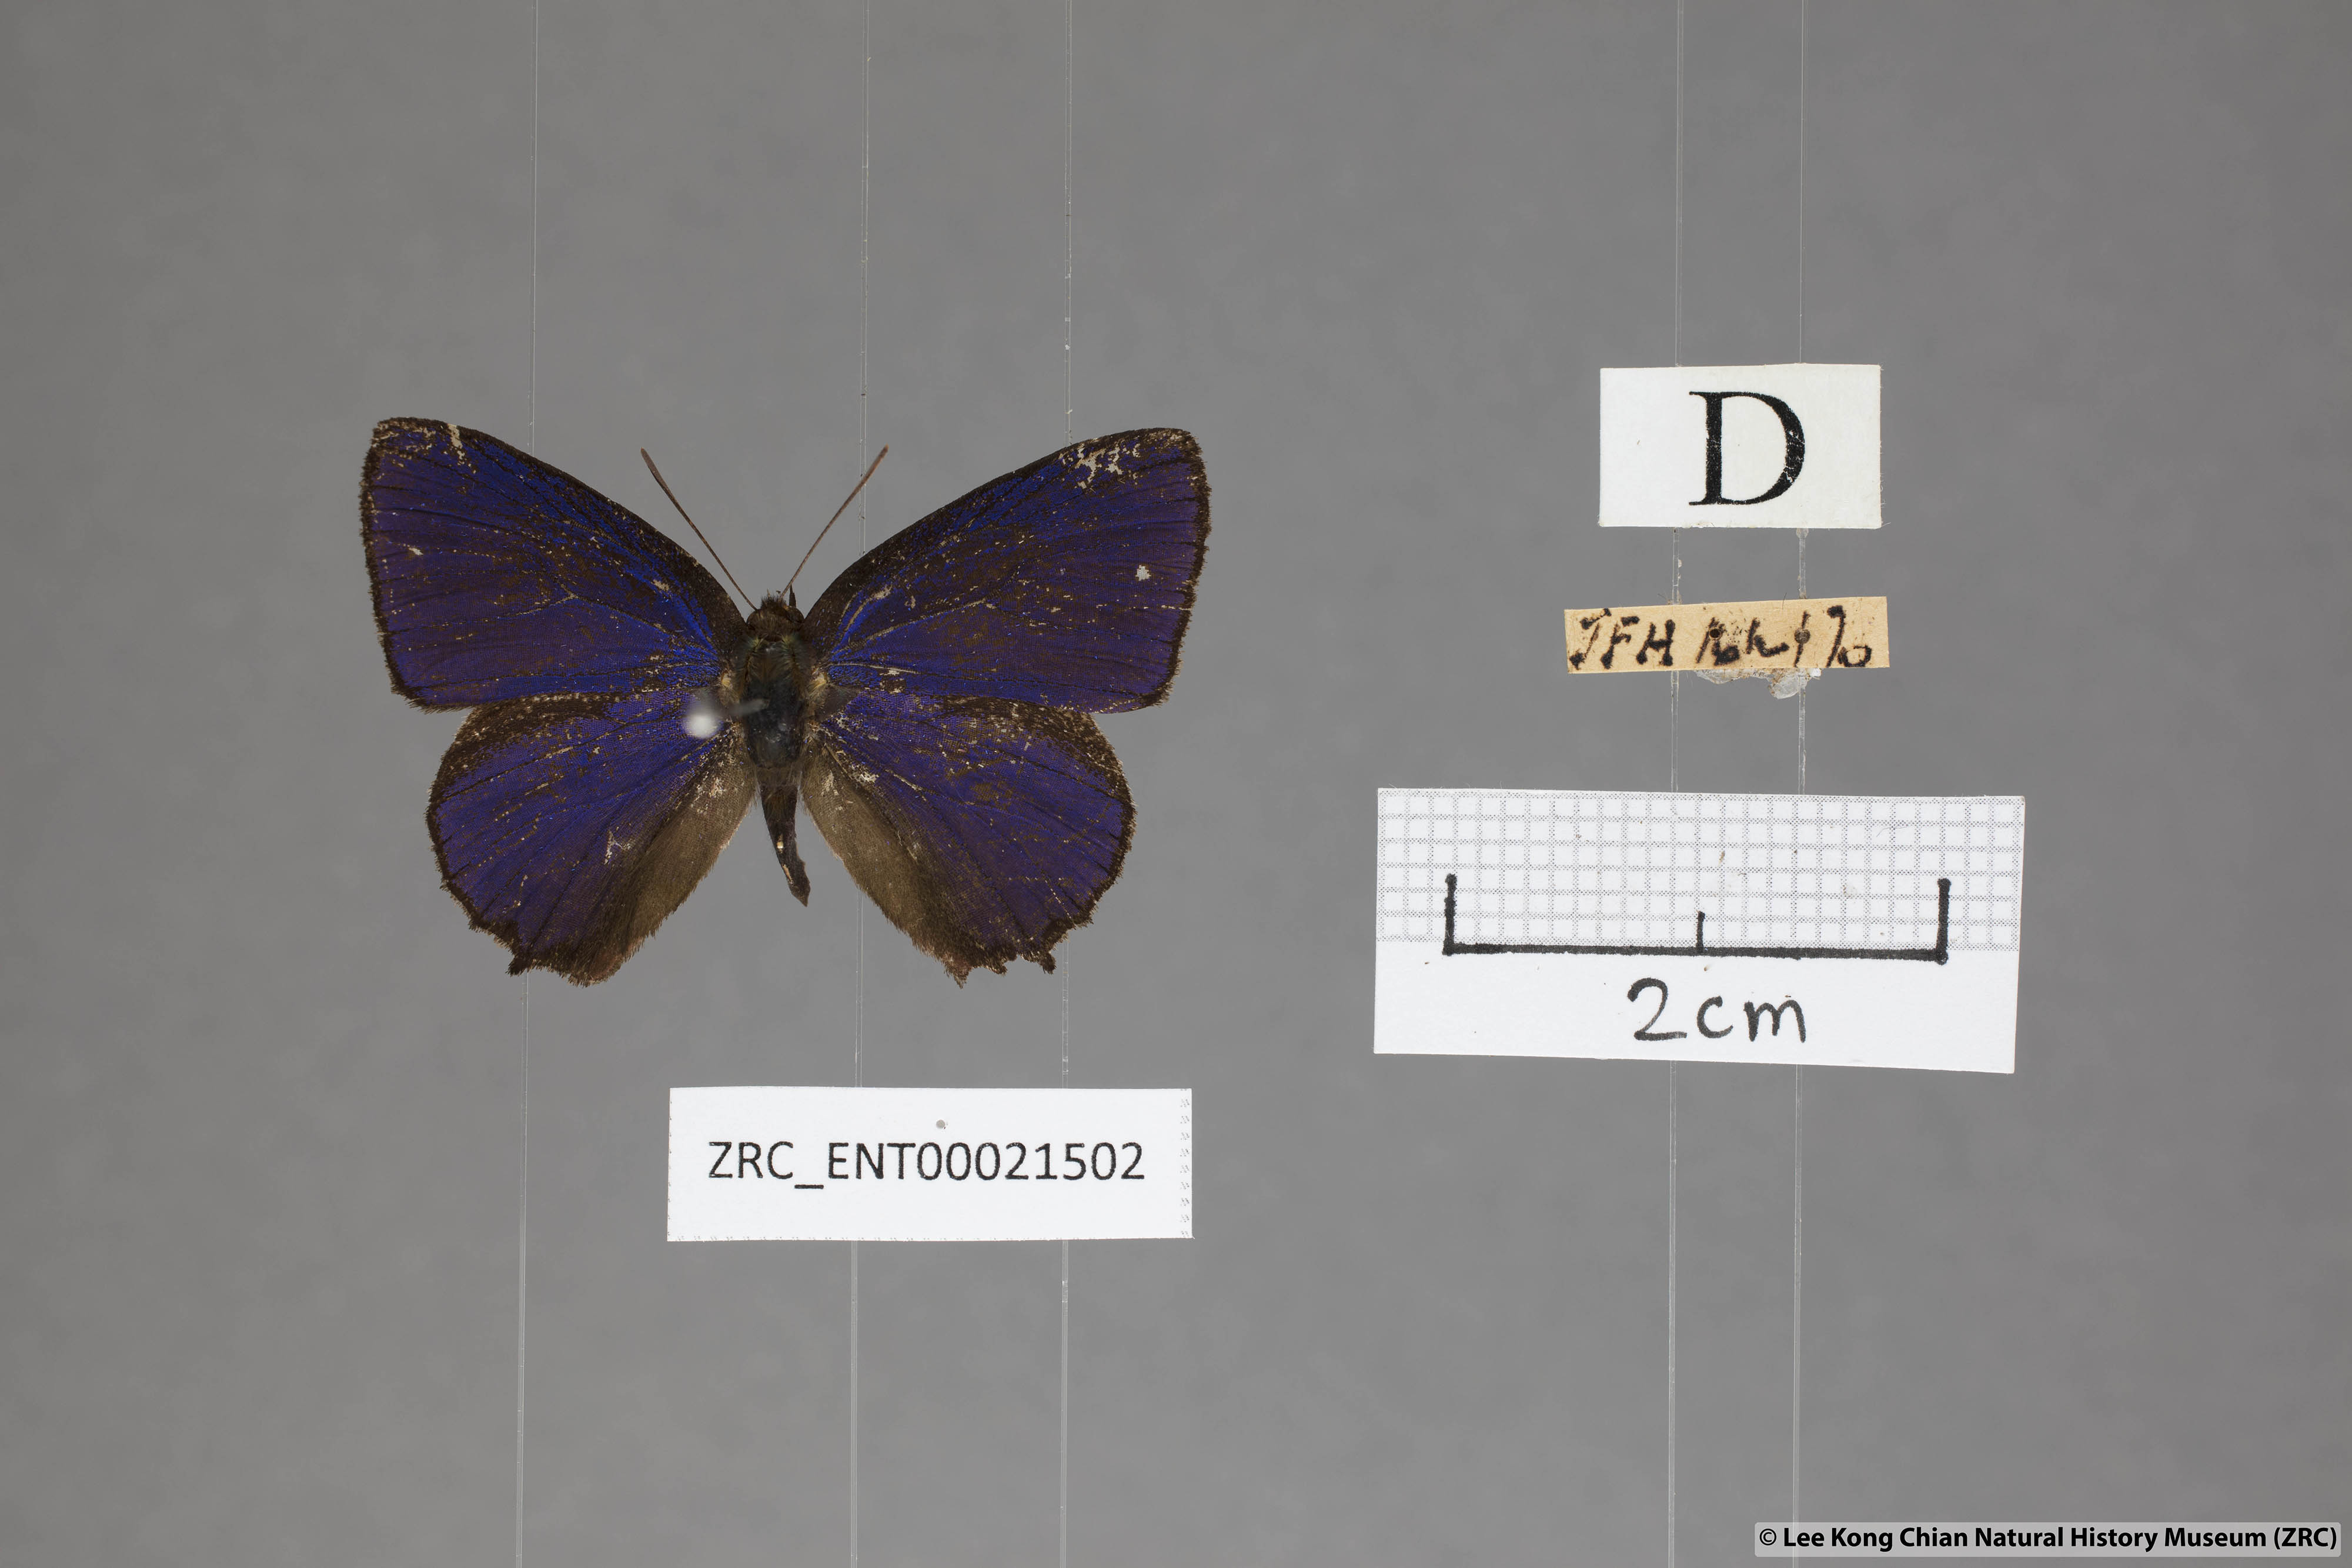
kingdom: Animalia
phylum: Arthropoda
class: Insecta
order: Lepidoptera
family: Lycaenidae
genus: Flos
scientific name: Flos
